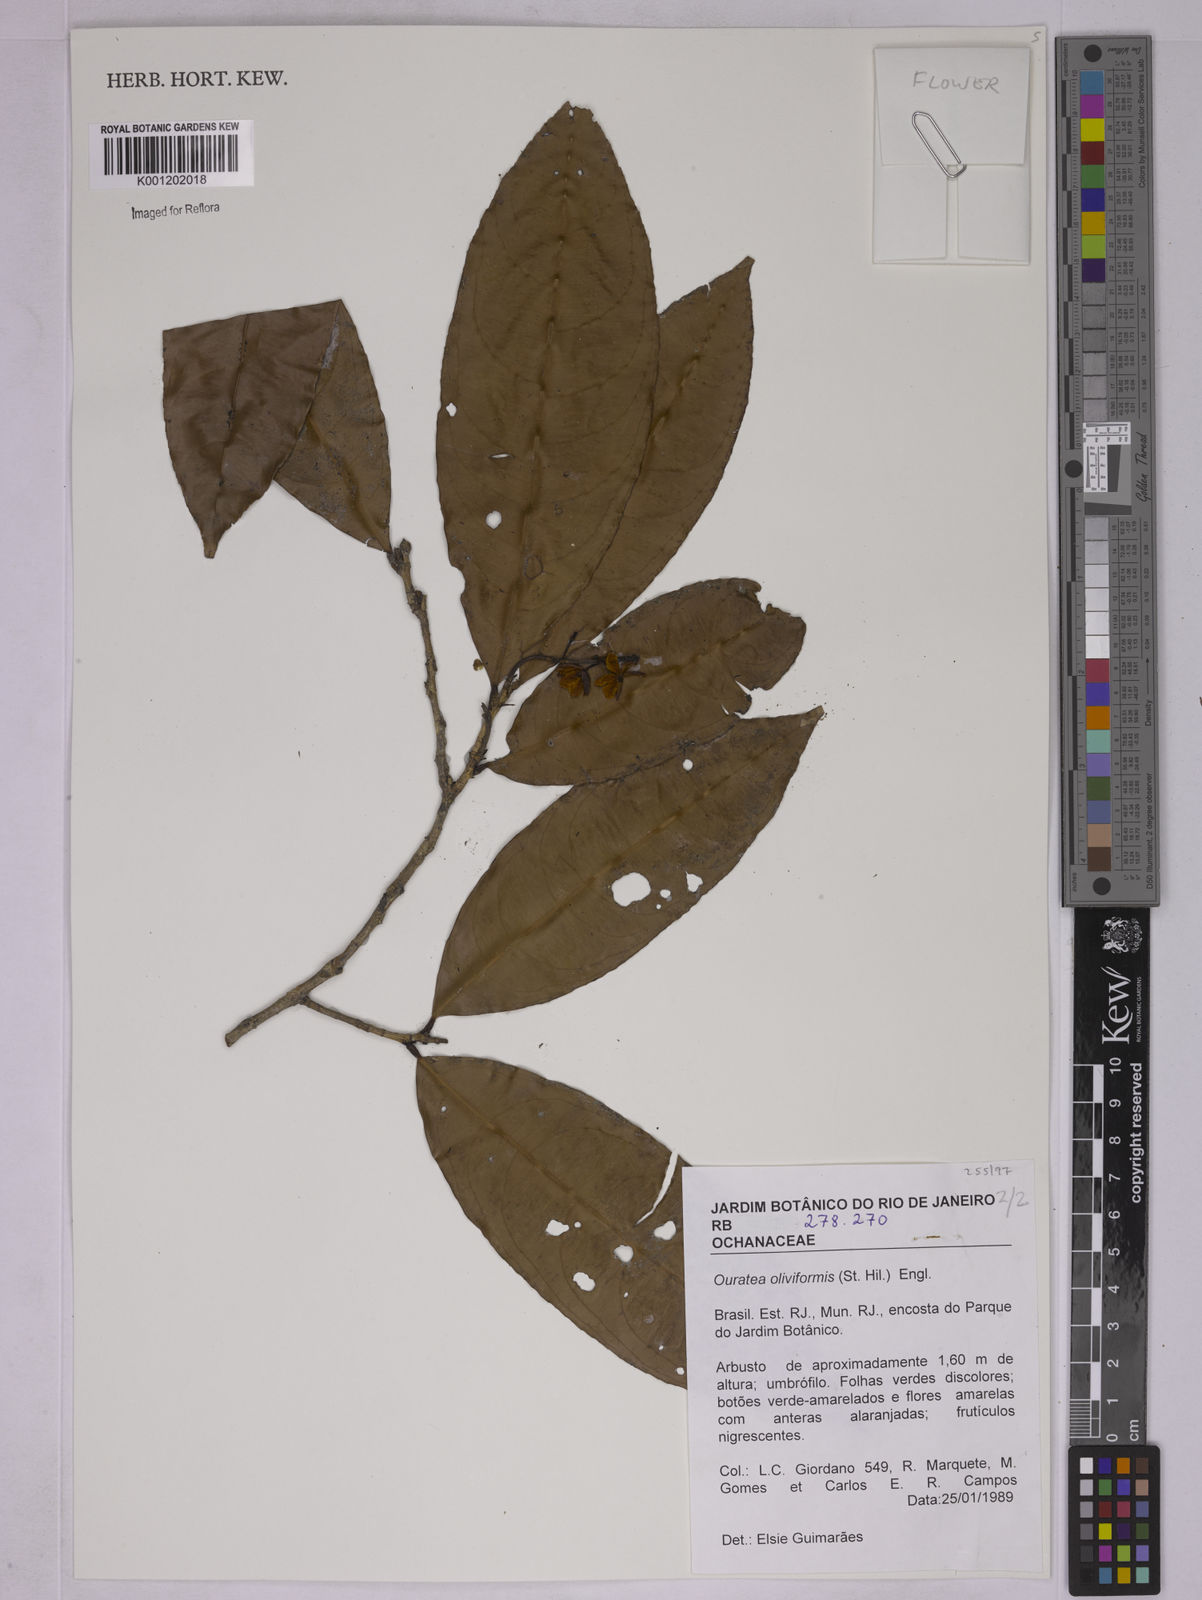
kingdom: Plantae
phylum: Tracheophyta
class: Magnoliopsida
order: Malpighiales
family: Ochnaceae
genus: Ouratea
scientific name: Ouratea oliviformis
